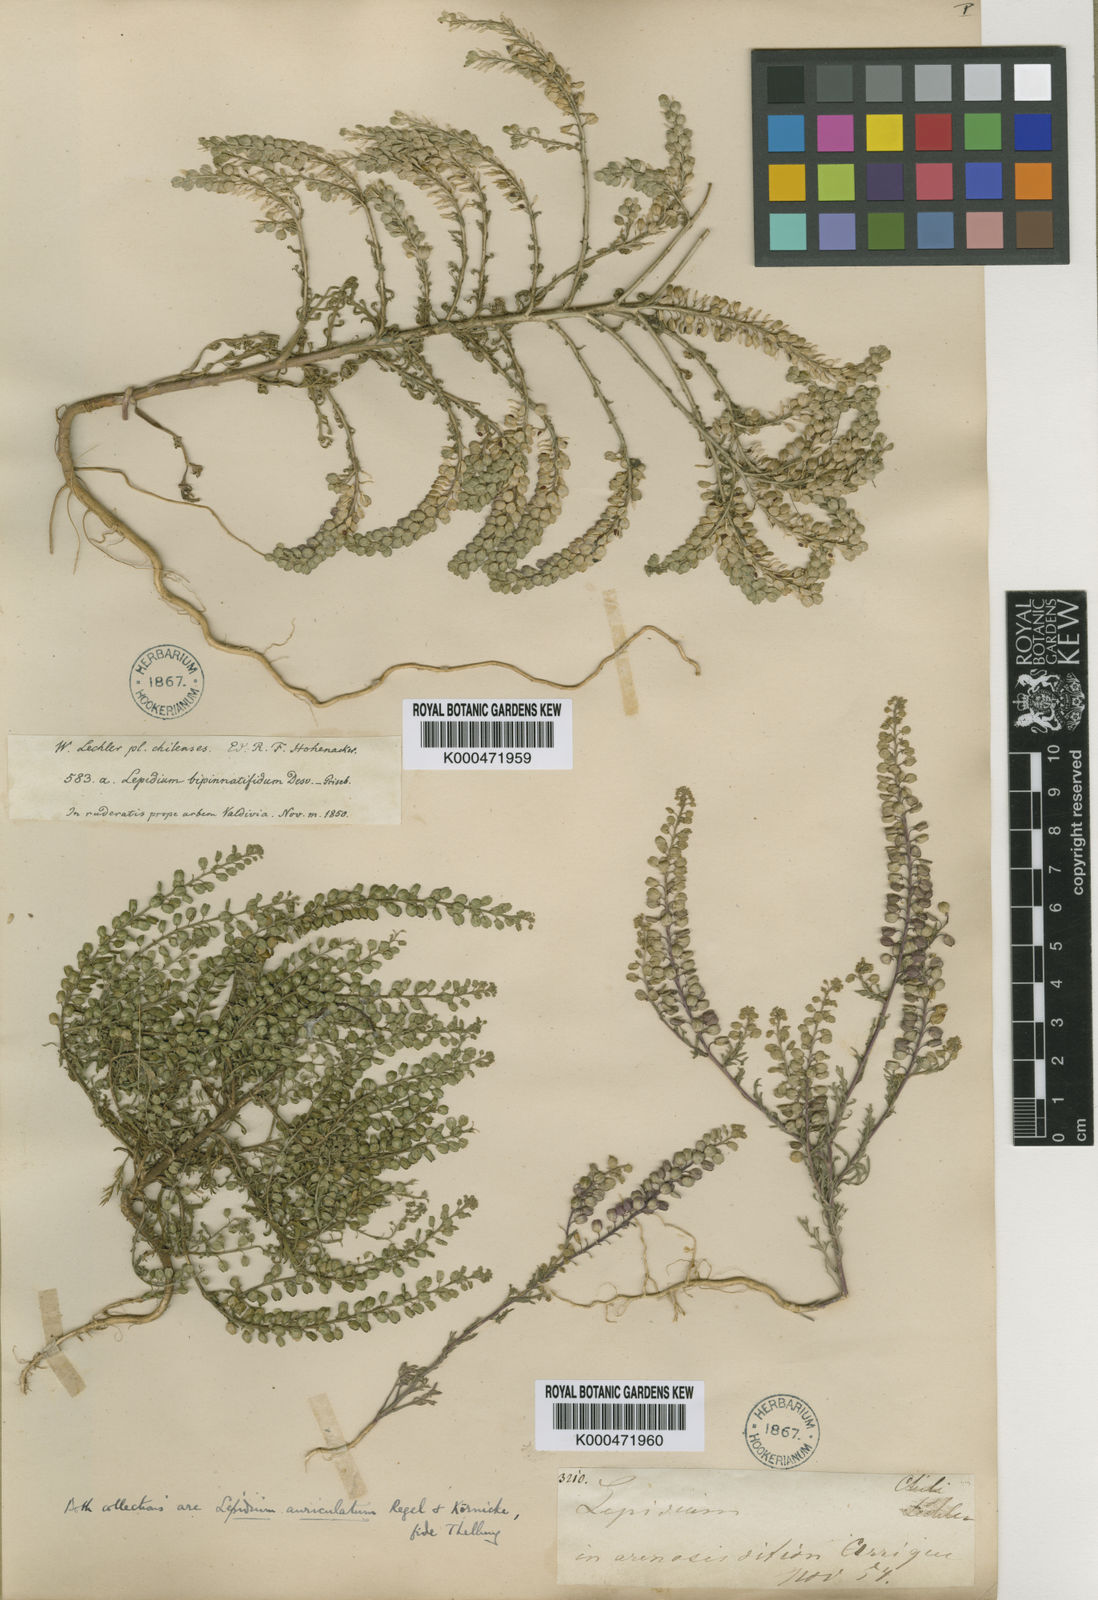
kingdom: Plantae
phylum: Tracheophyta
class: Magnoliopsida
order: Brassicales
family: Brassicaceae
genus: Lepidium
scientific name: Lepidium bipinnatifidum
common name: Wayside pepperwort
